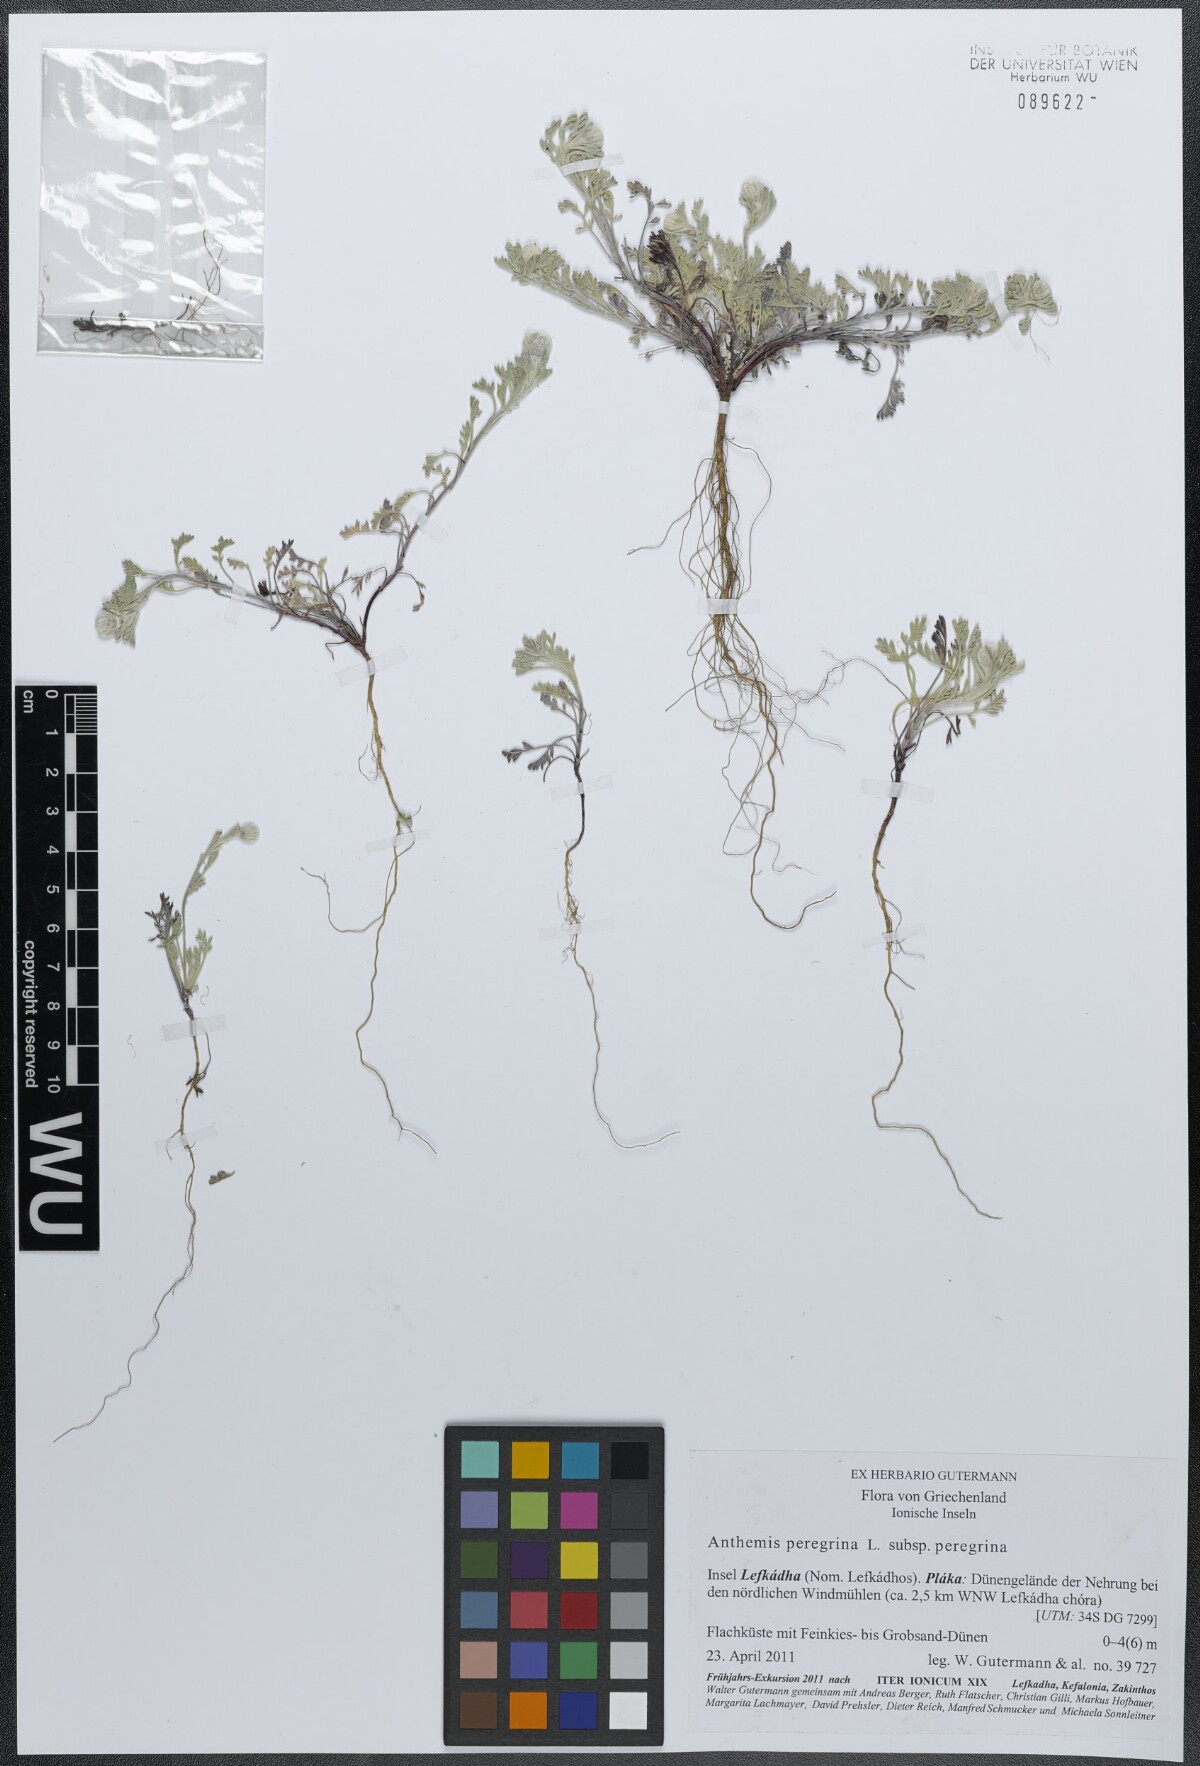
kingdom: Plantae
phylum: Tracheophyta
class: Magnoliopsida
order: Asterales
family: Asteraceae
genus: Anthemis
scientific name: Anthemis tomentosa
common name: Woolly chamomile
